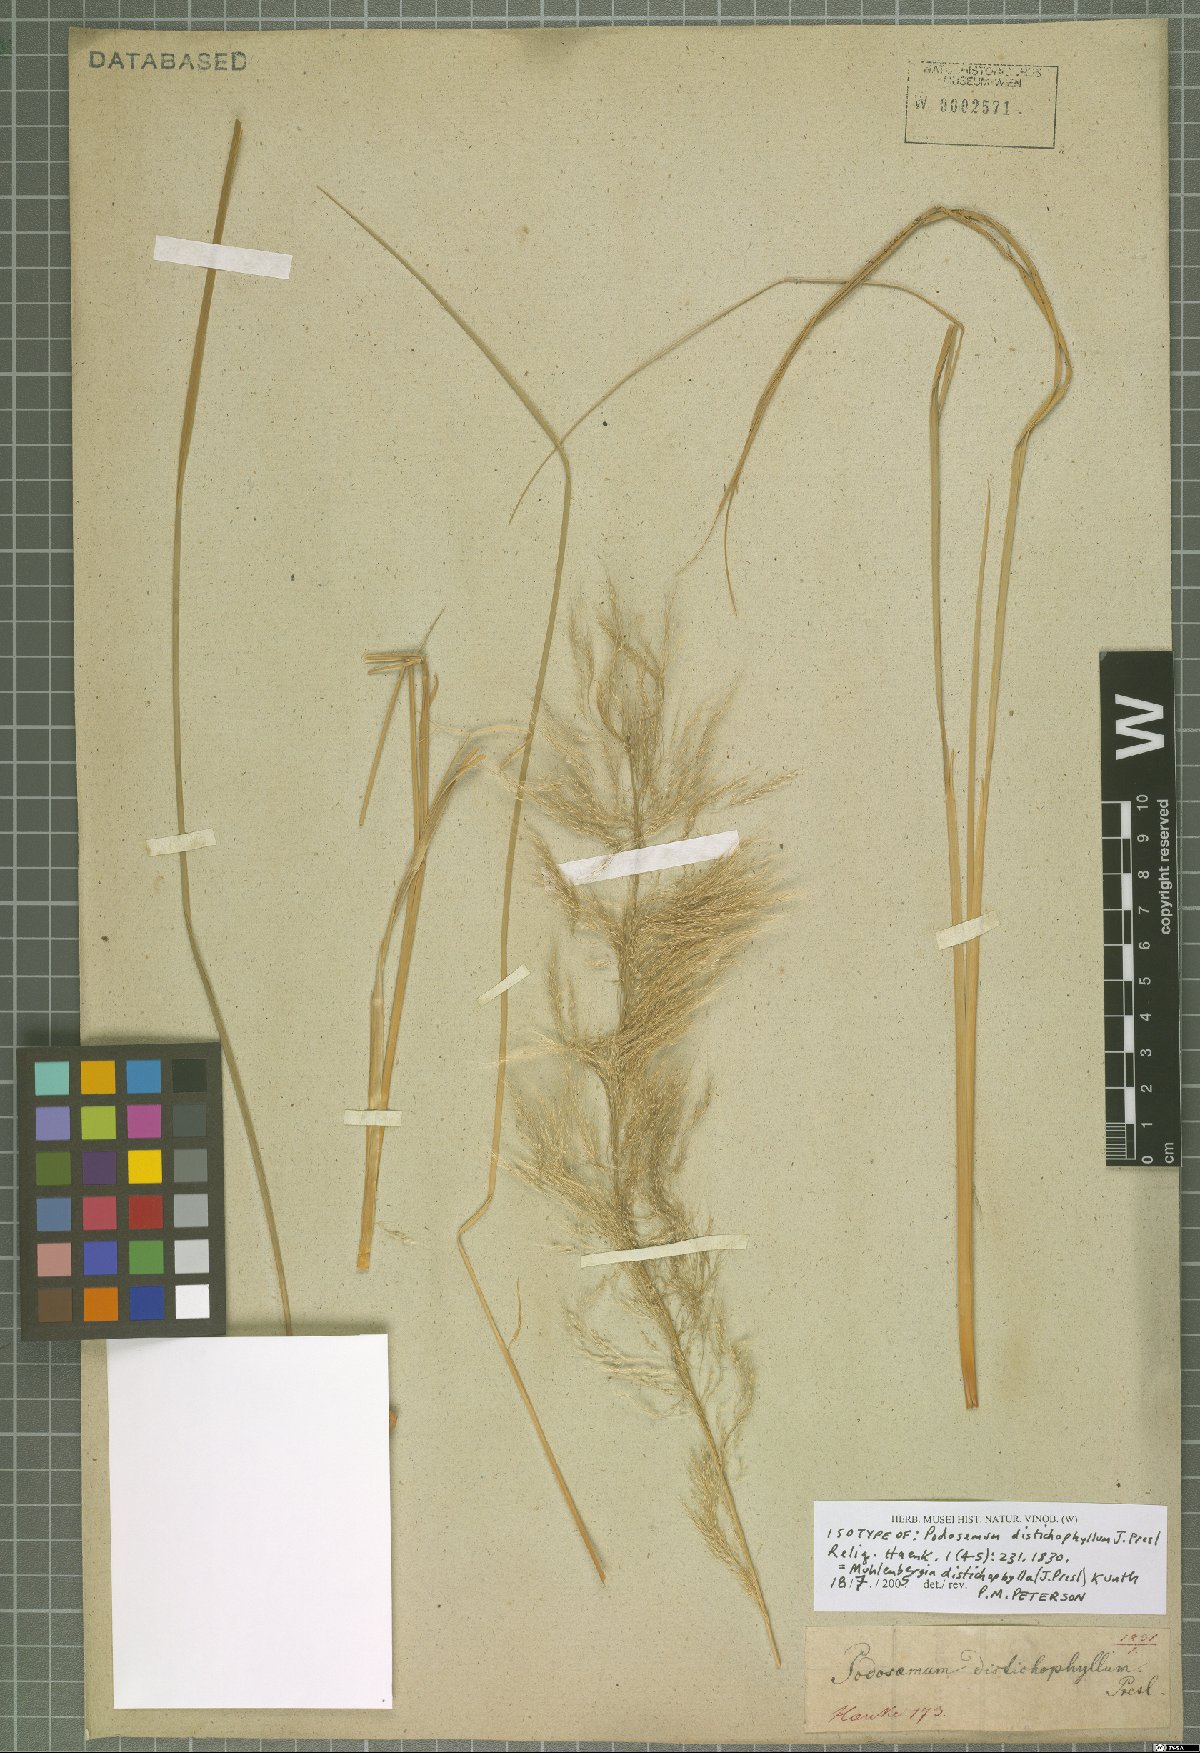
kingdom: Plantae
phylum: Tracheophyta
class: Liliopsida
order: Poales
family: Poaceae
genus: Muhlenbergia
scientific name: Muhlenbergia distichophylla
